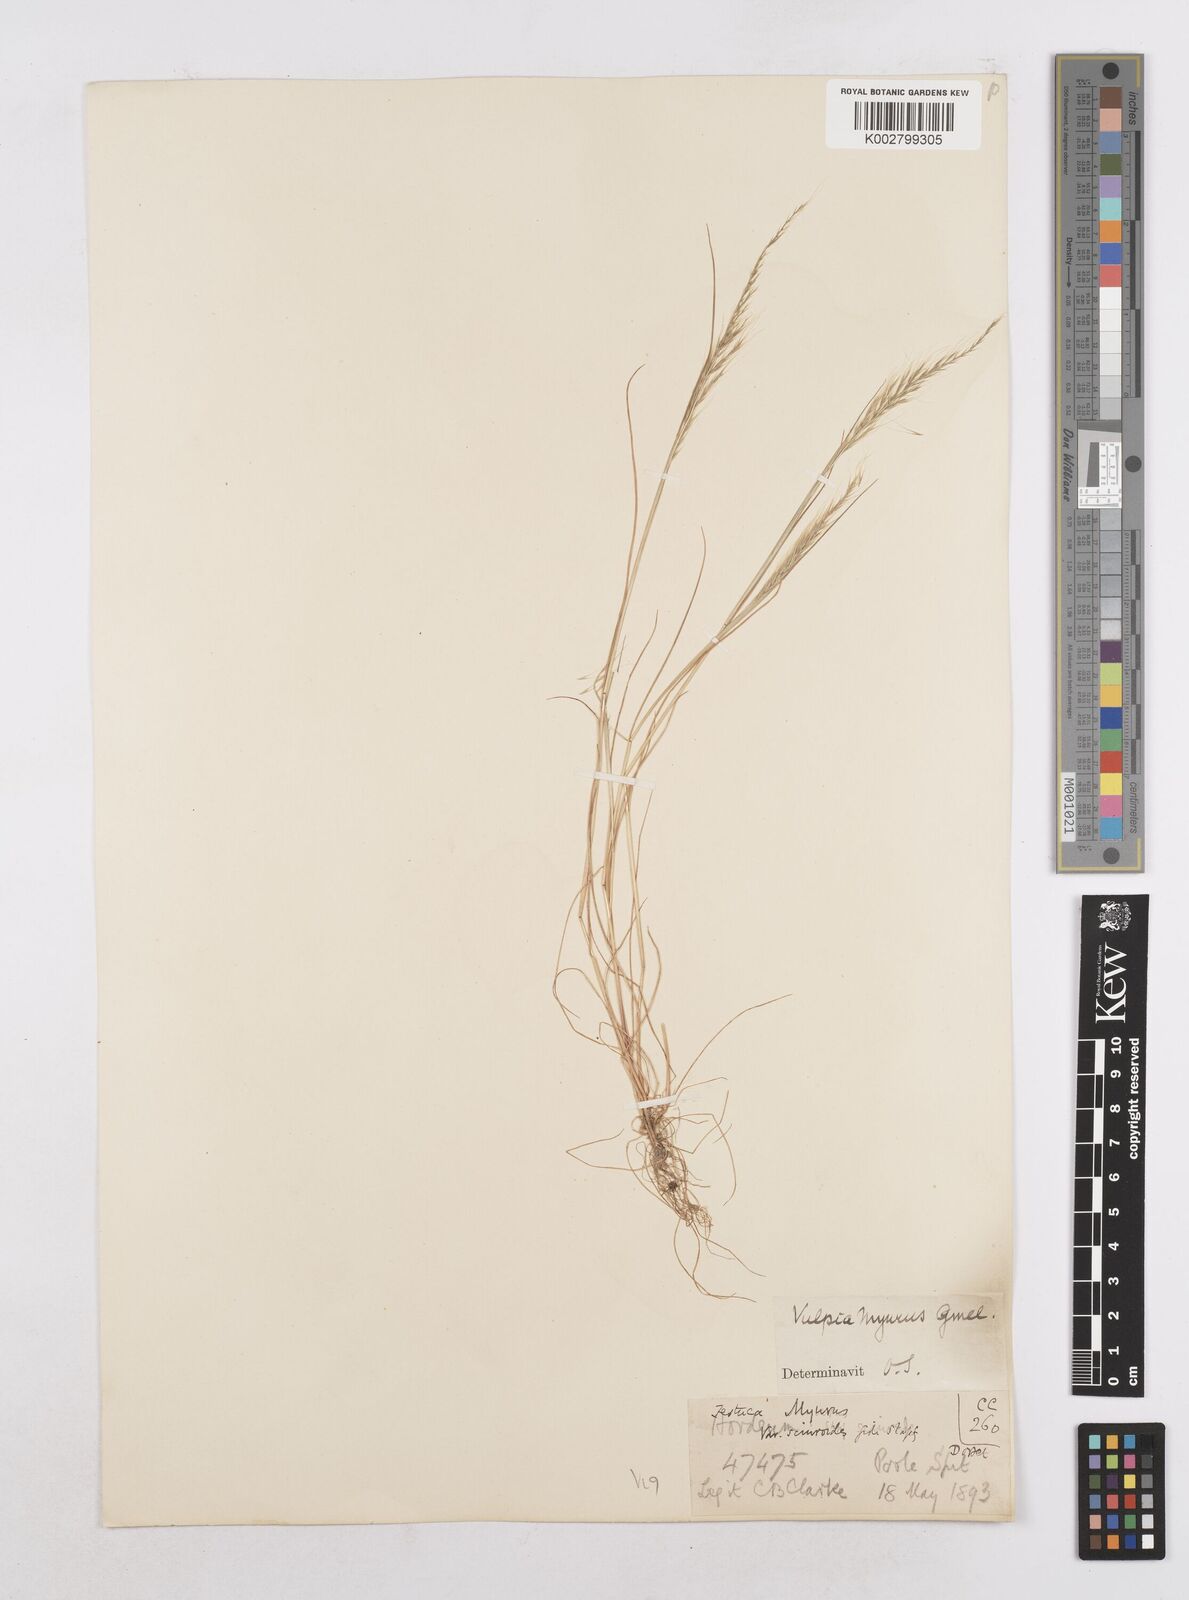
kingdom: Plantae
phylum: Tracheophyta
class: Liliopsida
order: Poales
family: Poaceae
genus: Festuca
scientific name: Festuca myuros
